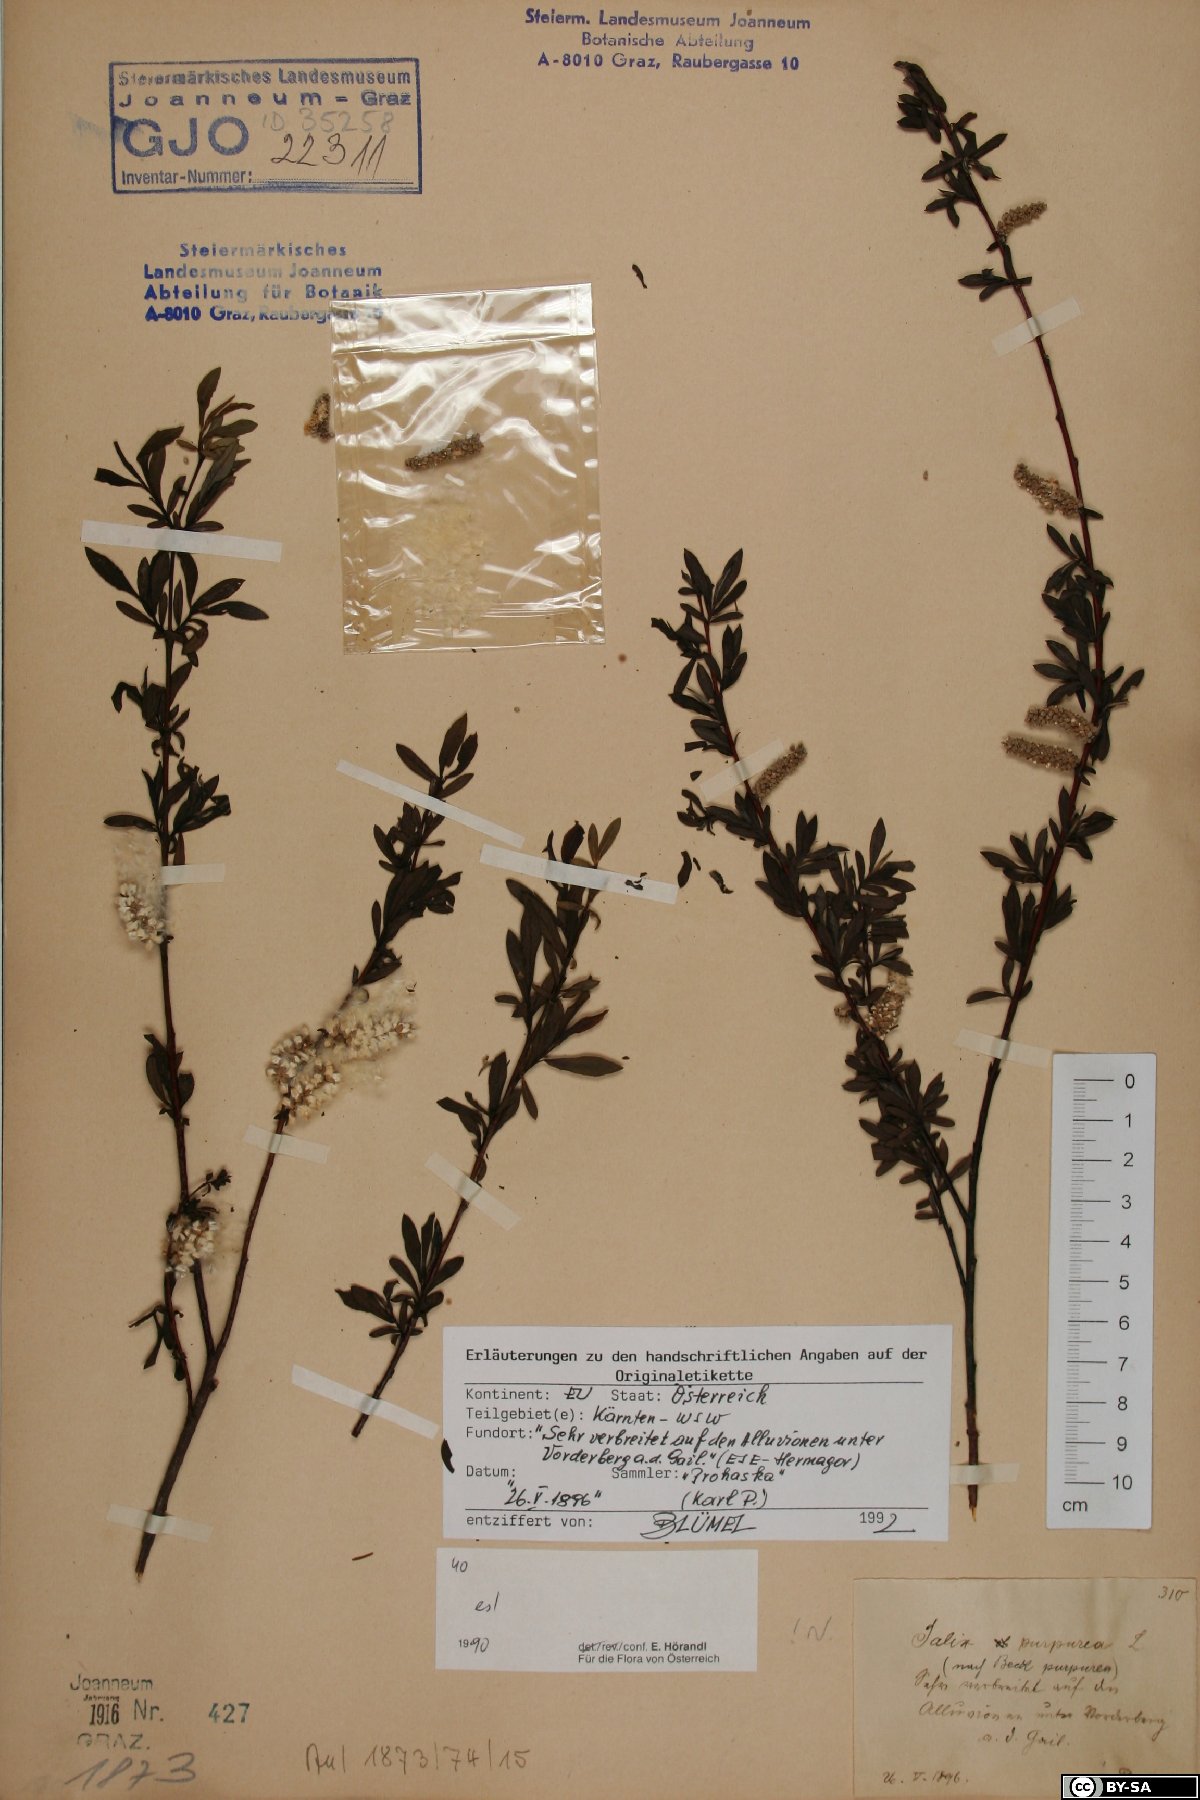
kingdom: Plantae
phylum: Tracheophyta
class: Magnoliopsida
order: Malpighiales
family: Salicaceae
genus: Salix
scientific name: Salix purpurea
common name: Purple willow
